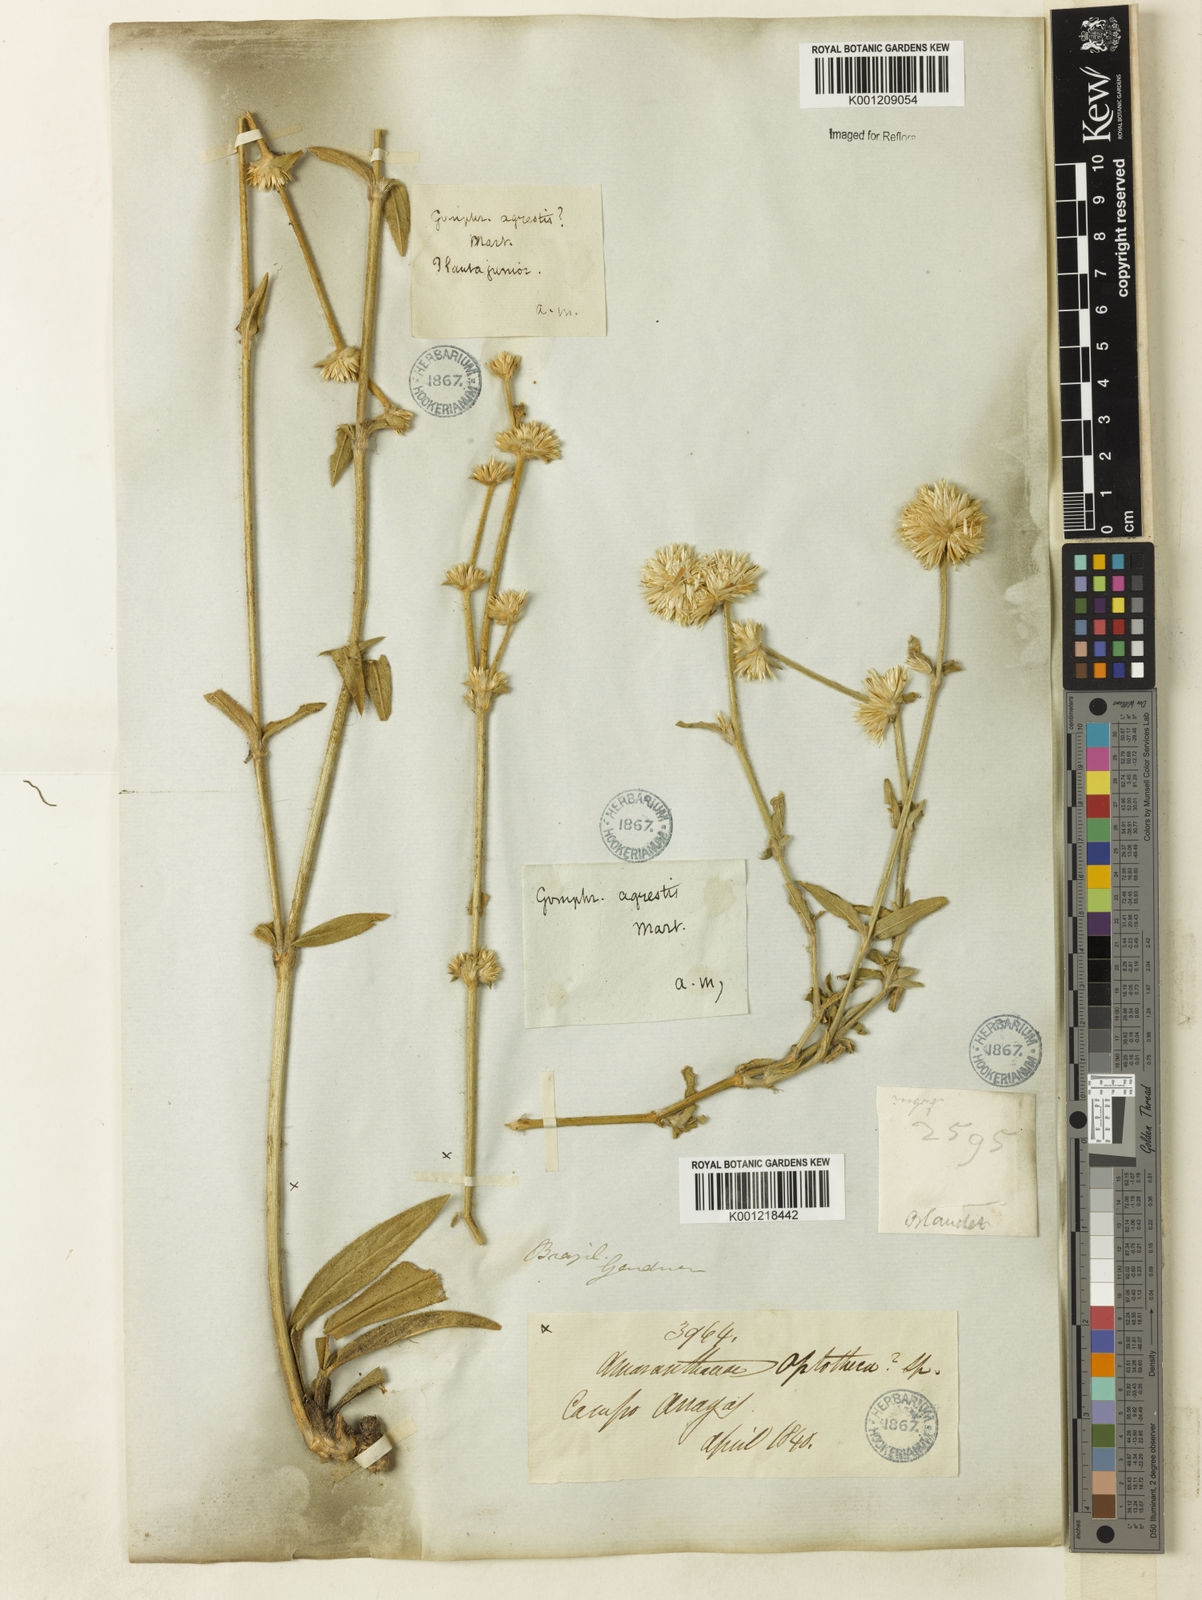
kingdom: Plantae
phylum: Tracheophyta
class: Magnoliopsida
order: Caryophyllales
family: Amaranthaceae
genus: Gomphrena
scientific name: Gomphrena agrestis
